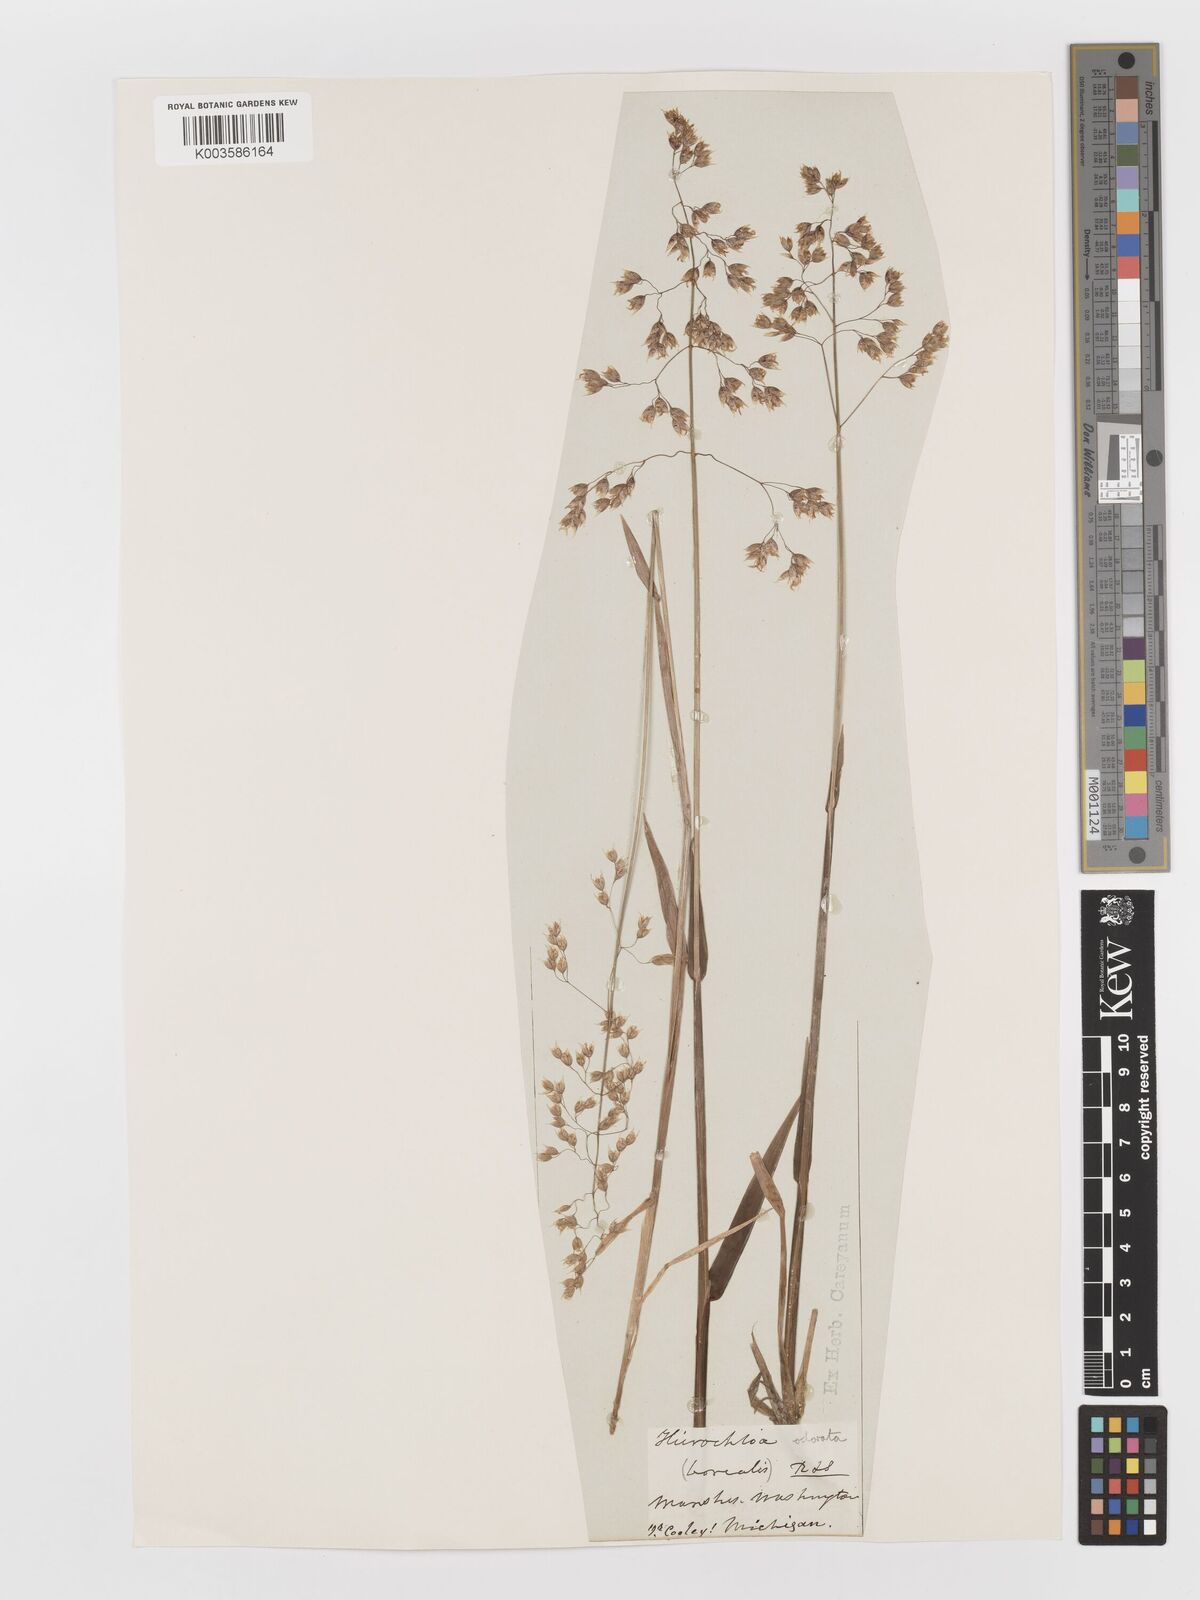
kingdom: Plantae
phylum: Tracheophyta
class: Liliopsida
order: Poales
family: Poaceae
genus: Anthoxanthum
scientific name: Anthoxanthum nitens
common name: Holy grass
